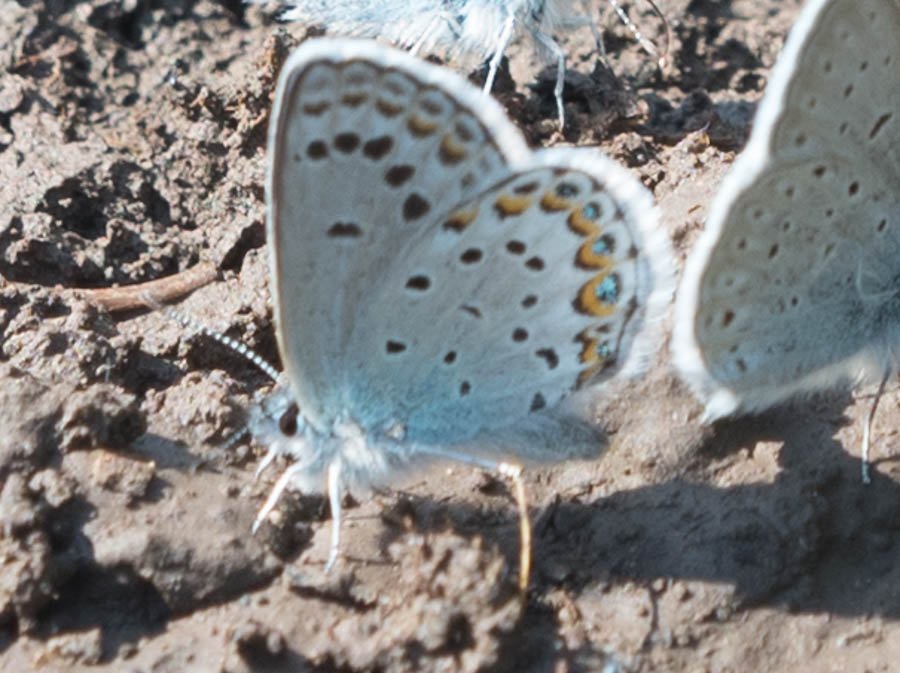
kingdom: Animalia
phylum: Arthropoda
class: Insecta
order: Lepidoptera
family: Lycaenidae
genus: Lycaeides
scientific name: Lycaeides idas
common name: Northern Blue
